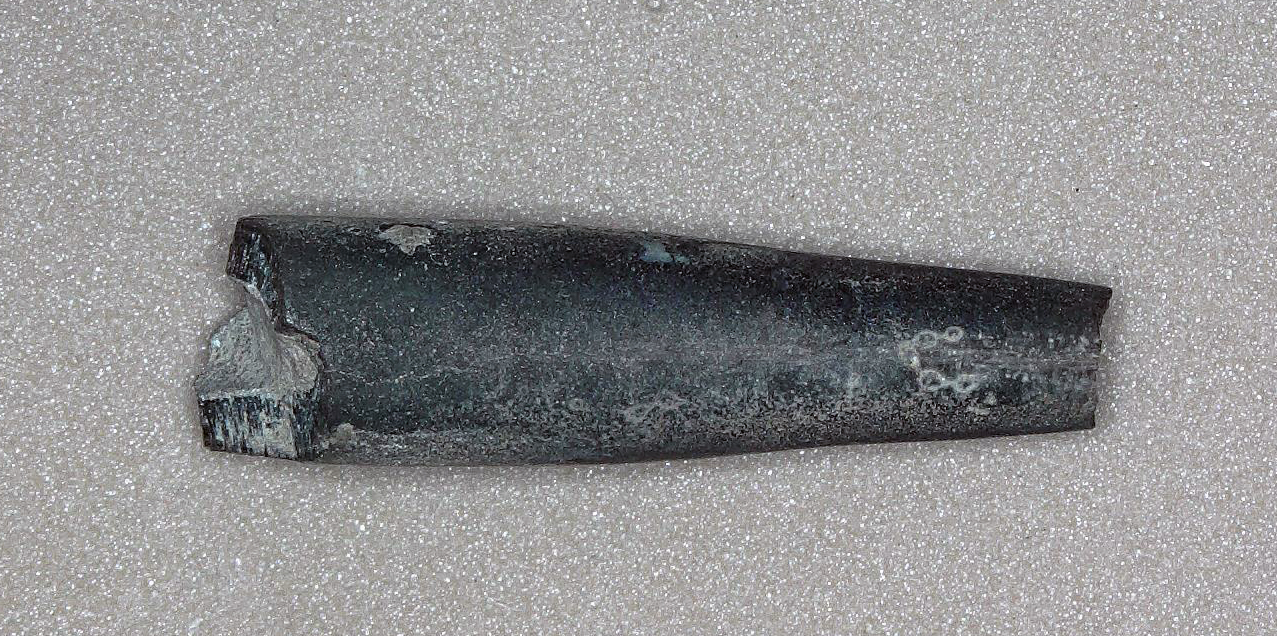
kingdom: Animalia
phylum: Mollusca
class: Cephalopoda
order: Belemnitida
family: Salpingoteuthididae
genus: Salpingoteuthis
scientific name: Salpingoteuthis dorsetensis
